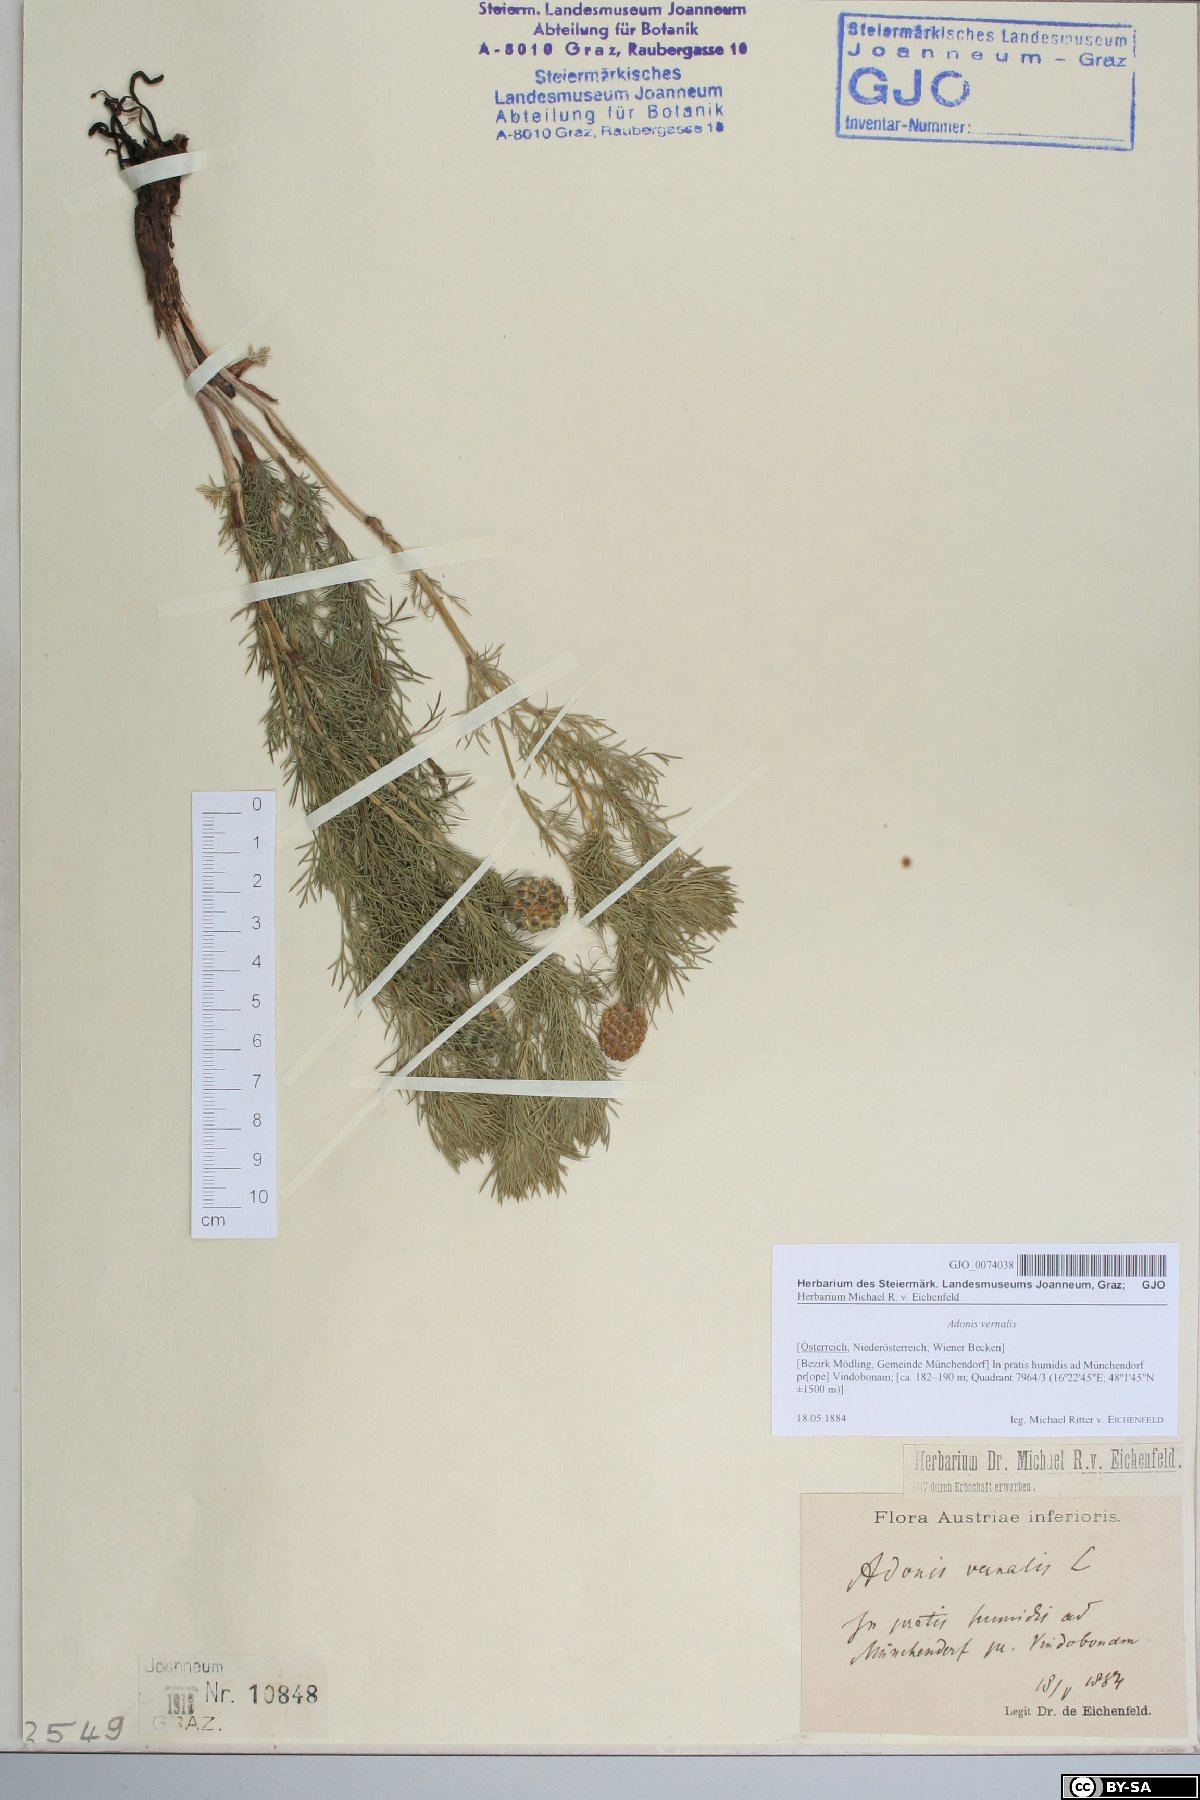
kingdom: Plantae
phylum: Tracheophyta
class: Magnoliopsida
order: Ranunculales
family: Ranunculaceae
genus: Adonis
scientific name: Adonis vernalis
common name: Yellow pheasants-eye
